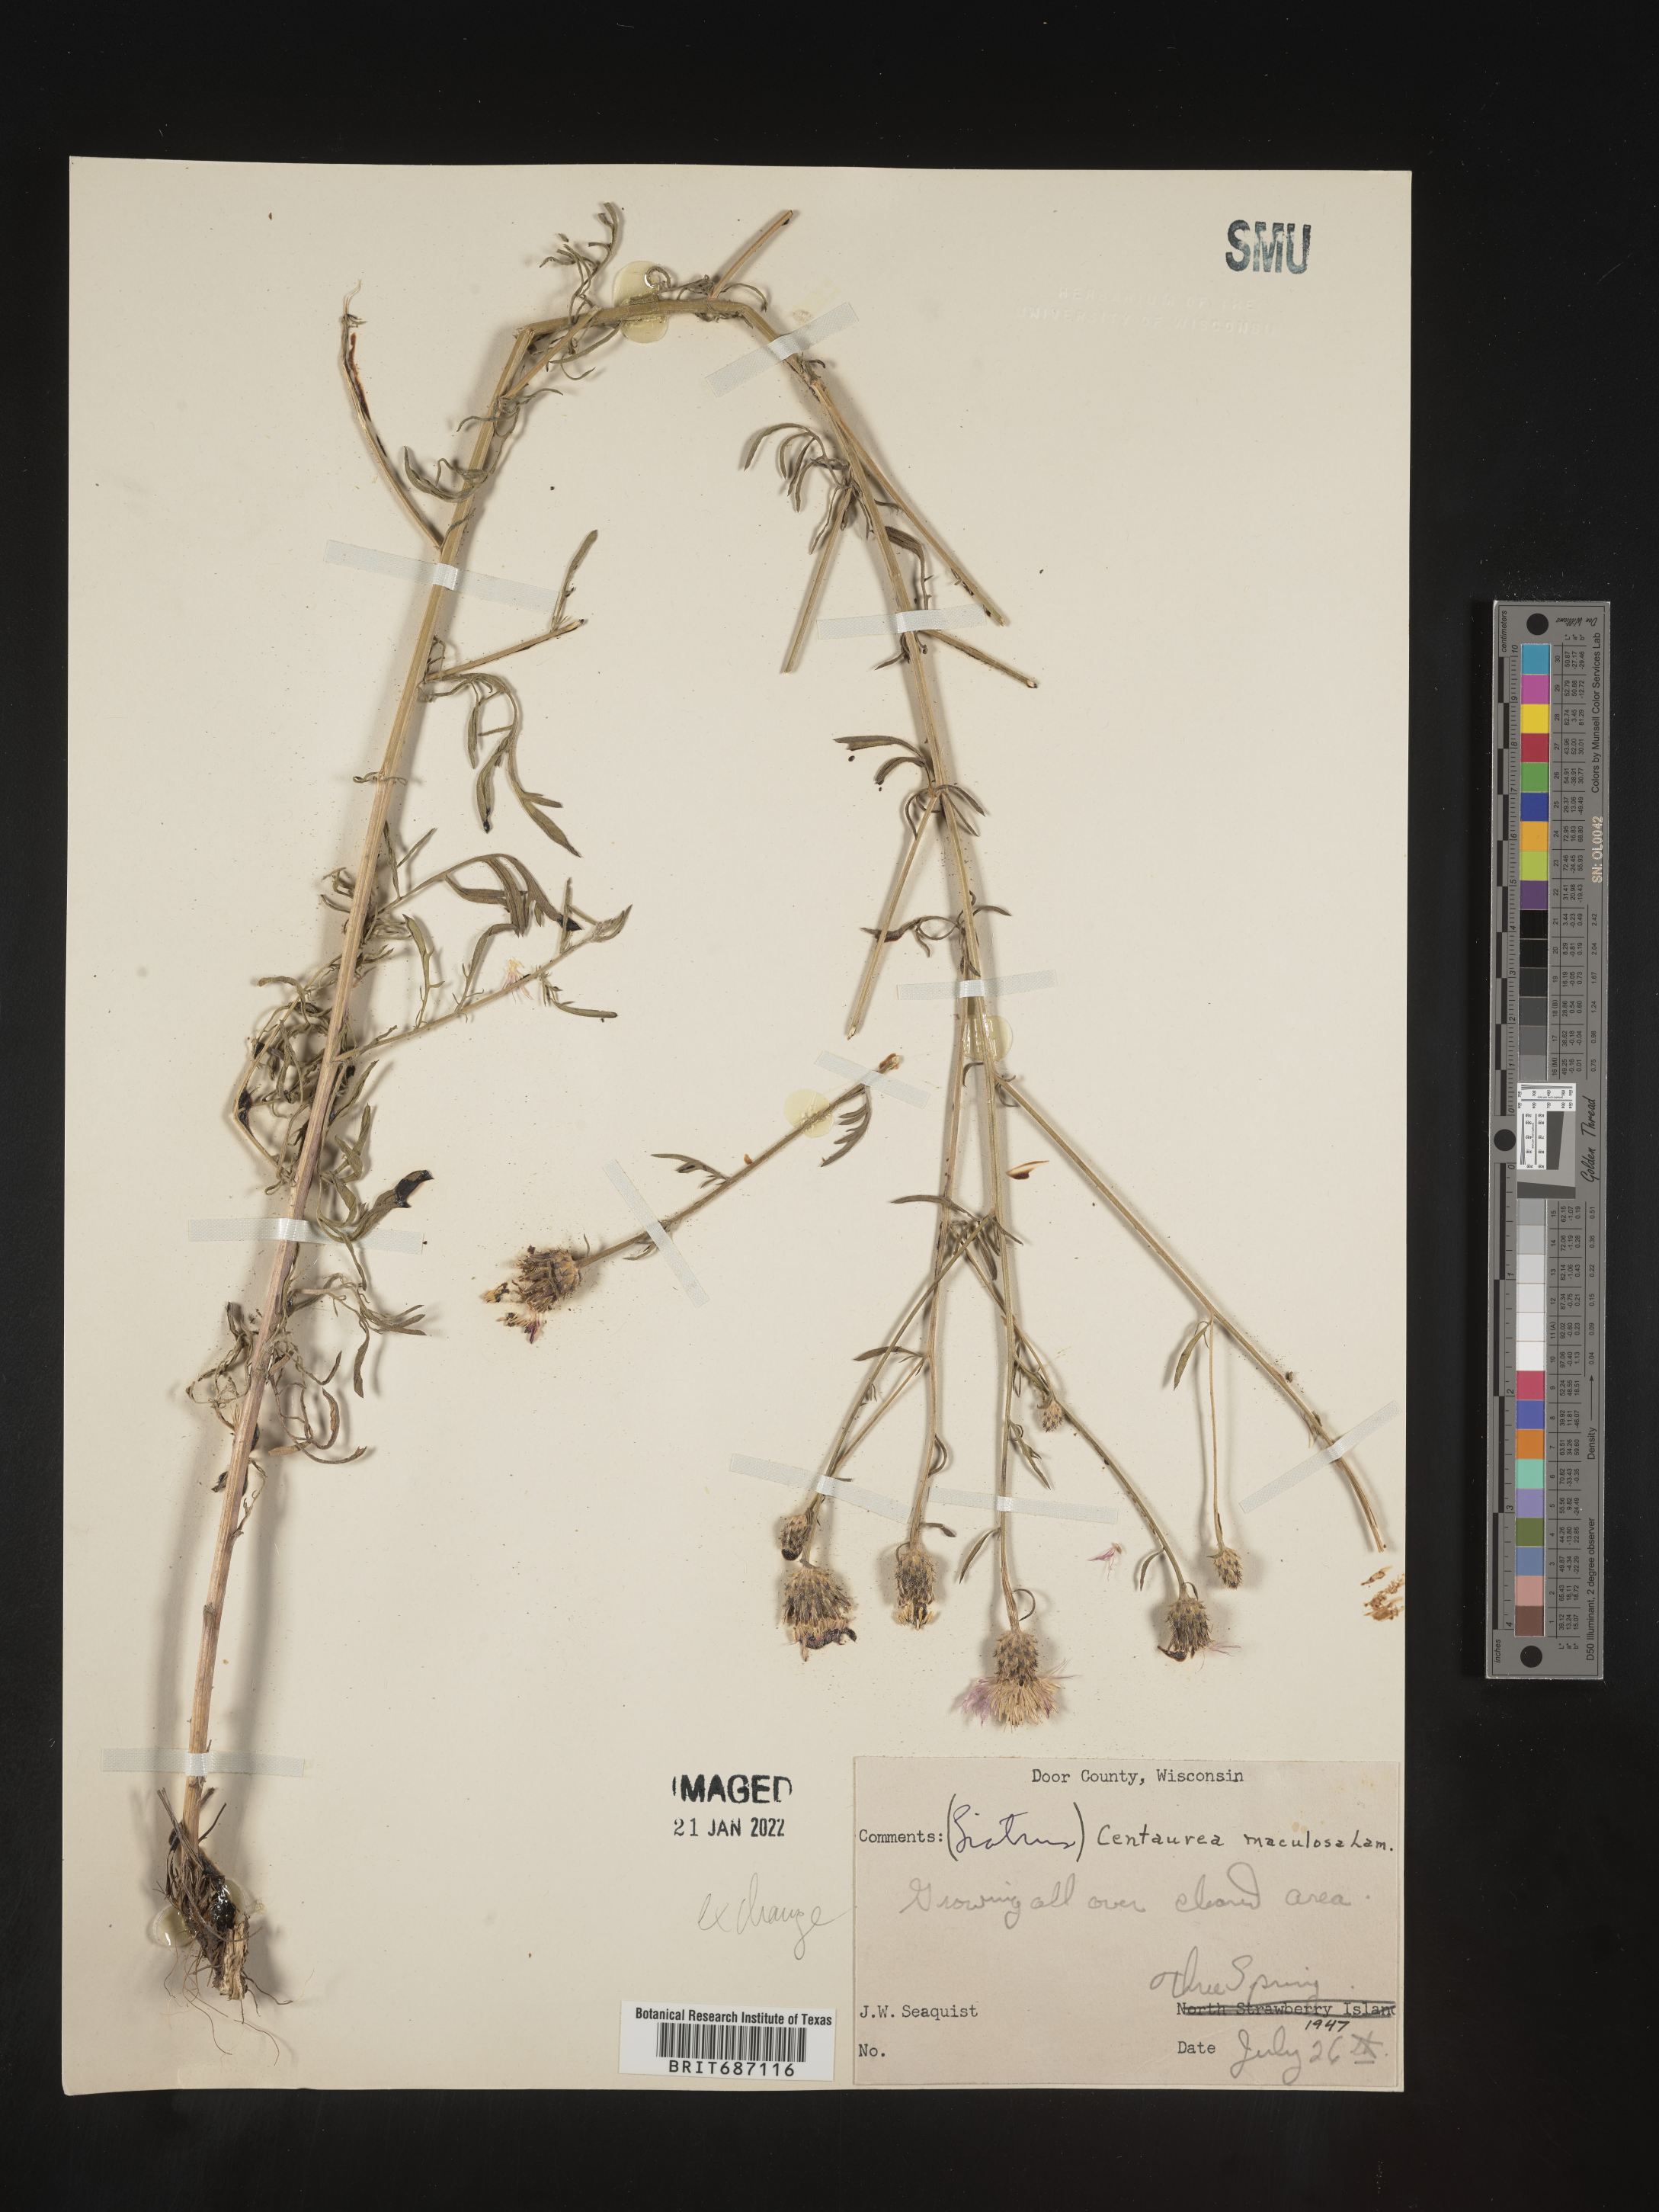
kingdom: Plantae
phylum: Tracheophyta
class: Magnoliopsida
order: Asterales
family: Asteraceae
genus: Centaurea
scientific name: Centaurea stoebe
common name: Spotted knapweed
